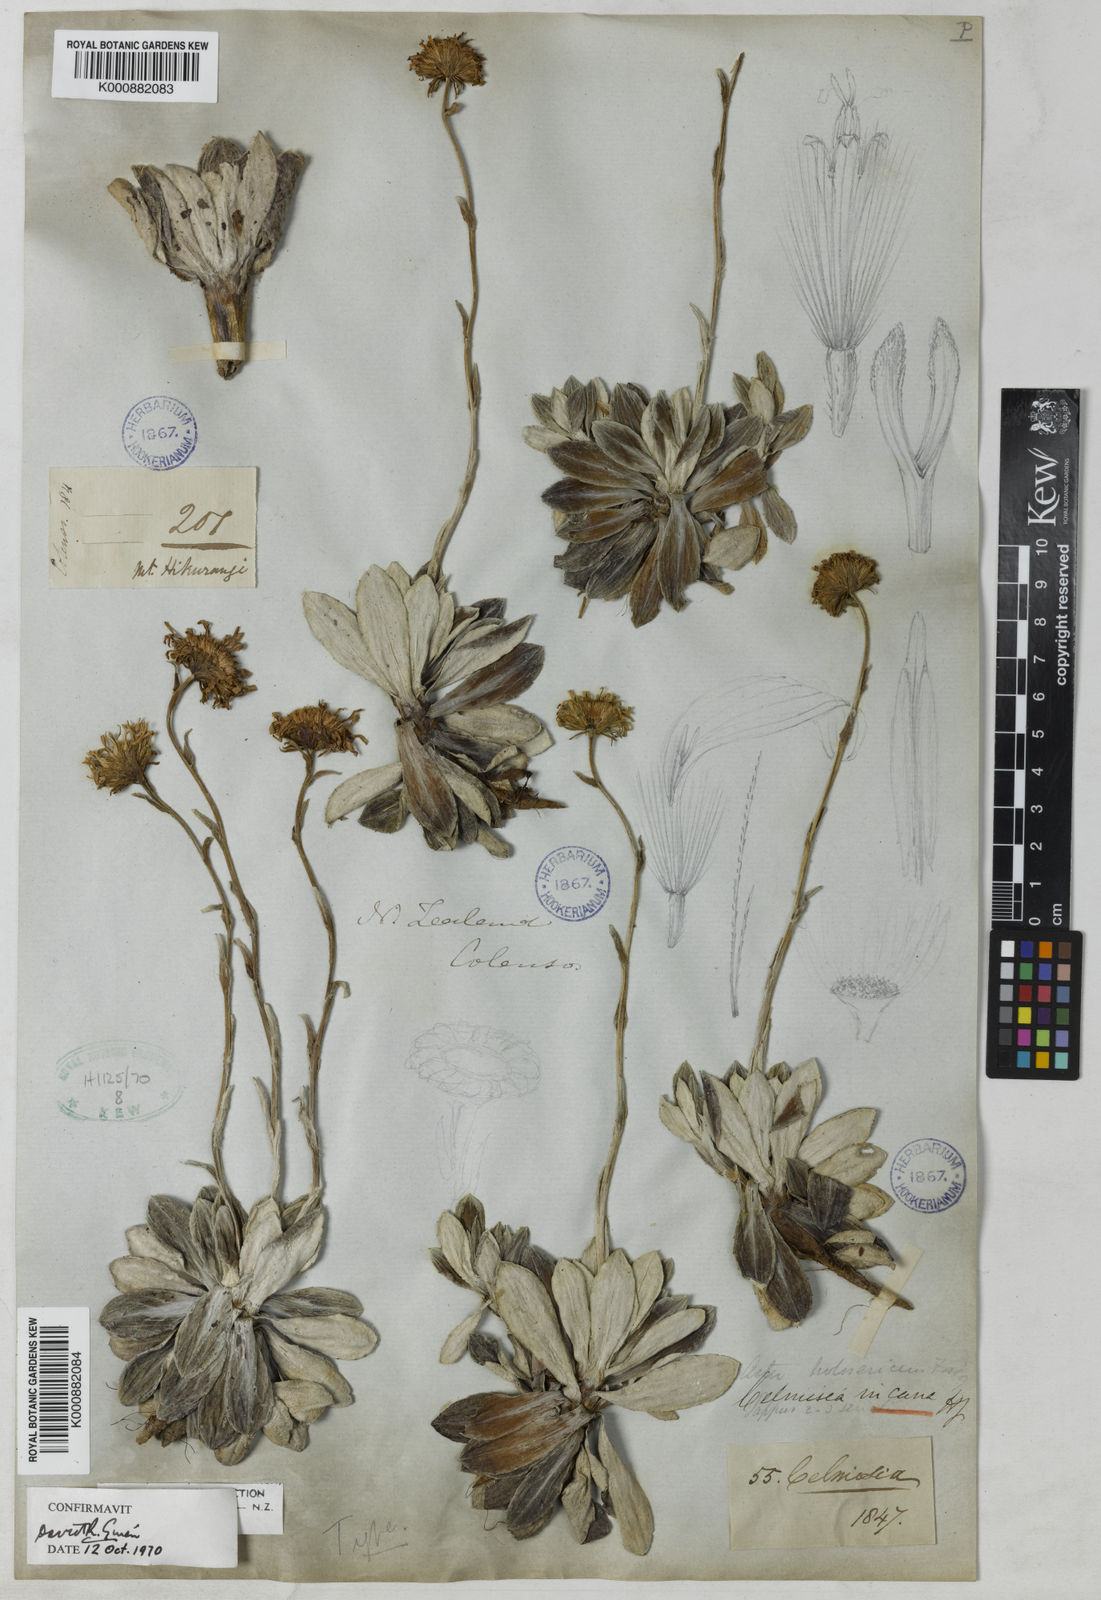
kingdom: Plantae
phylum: Tracheophyta
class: Magnoliopsida
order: Asterales
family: Asteraceae
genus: Celmisia
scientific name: Celmisia incana
